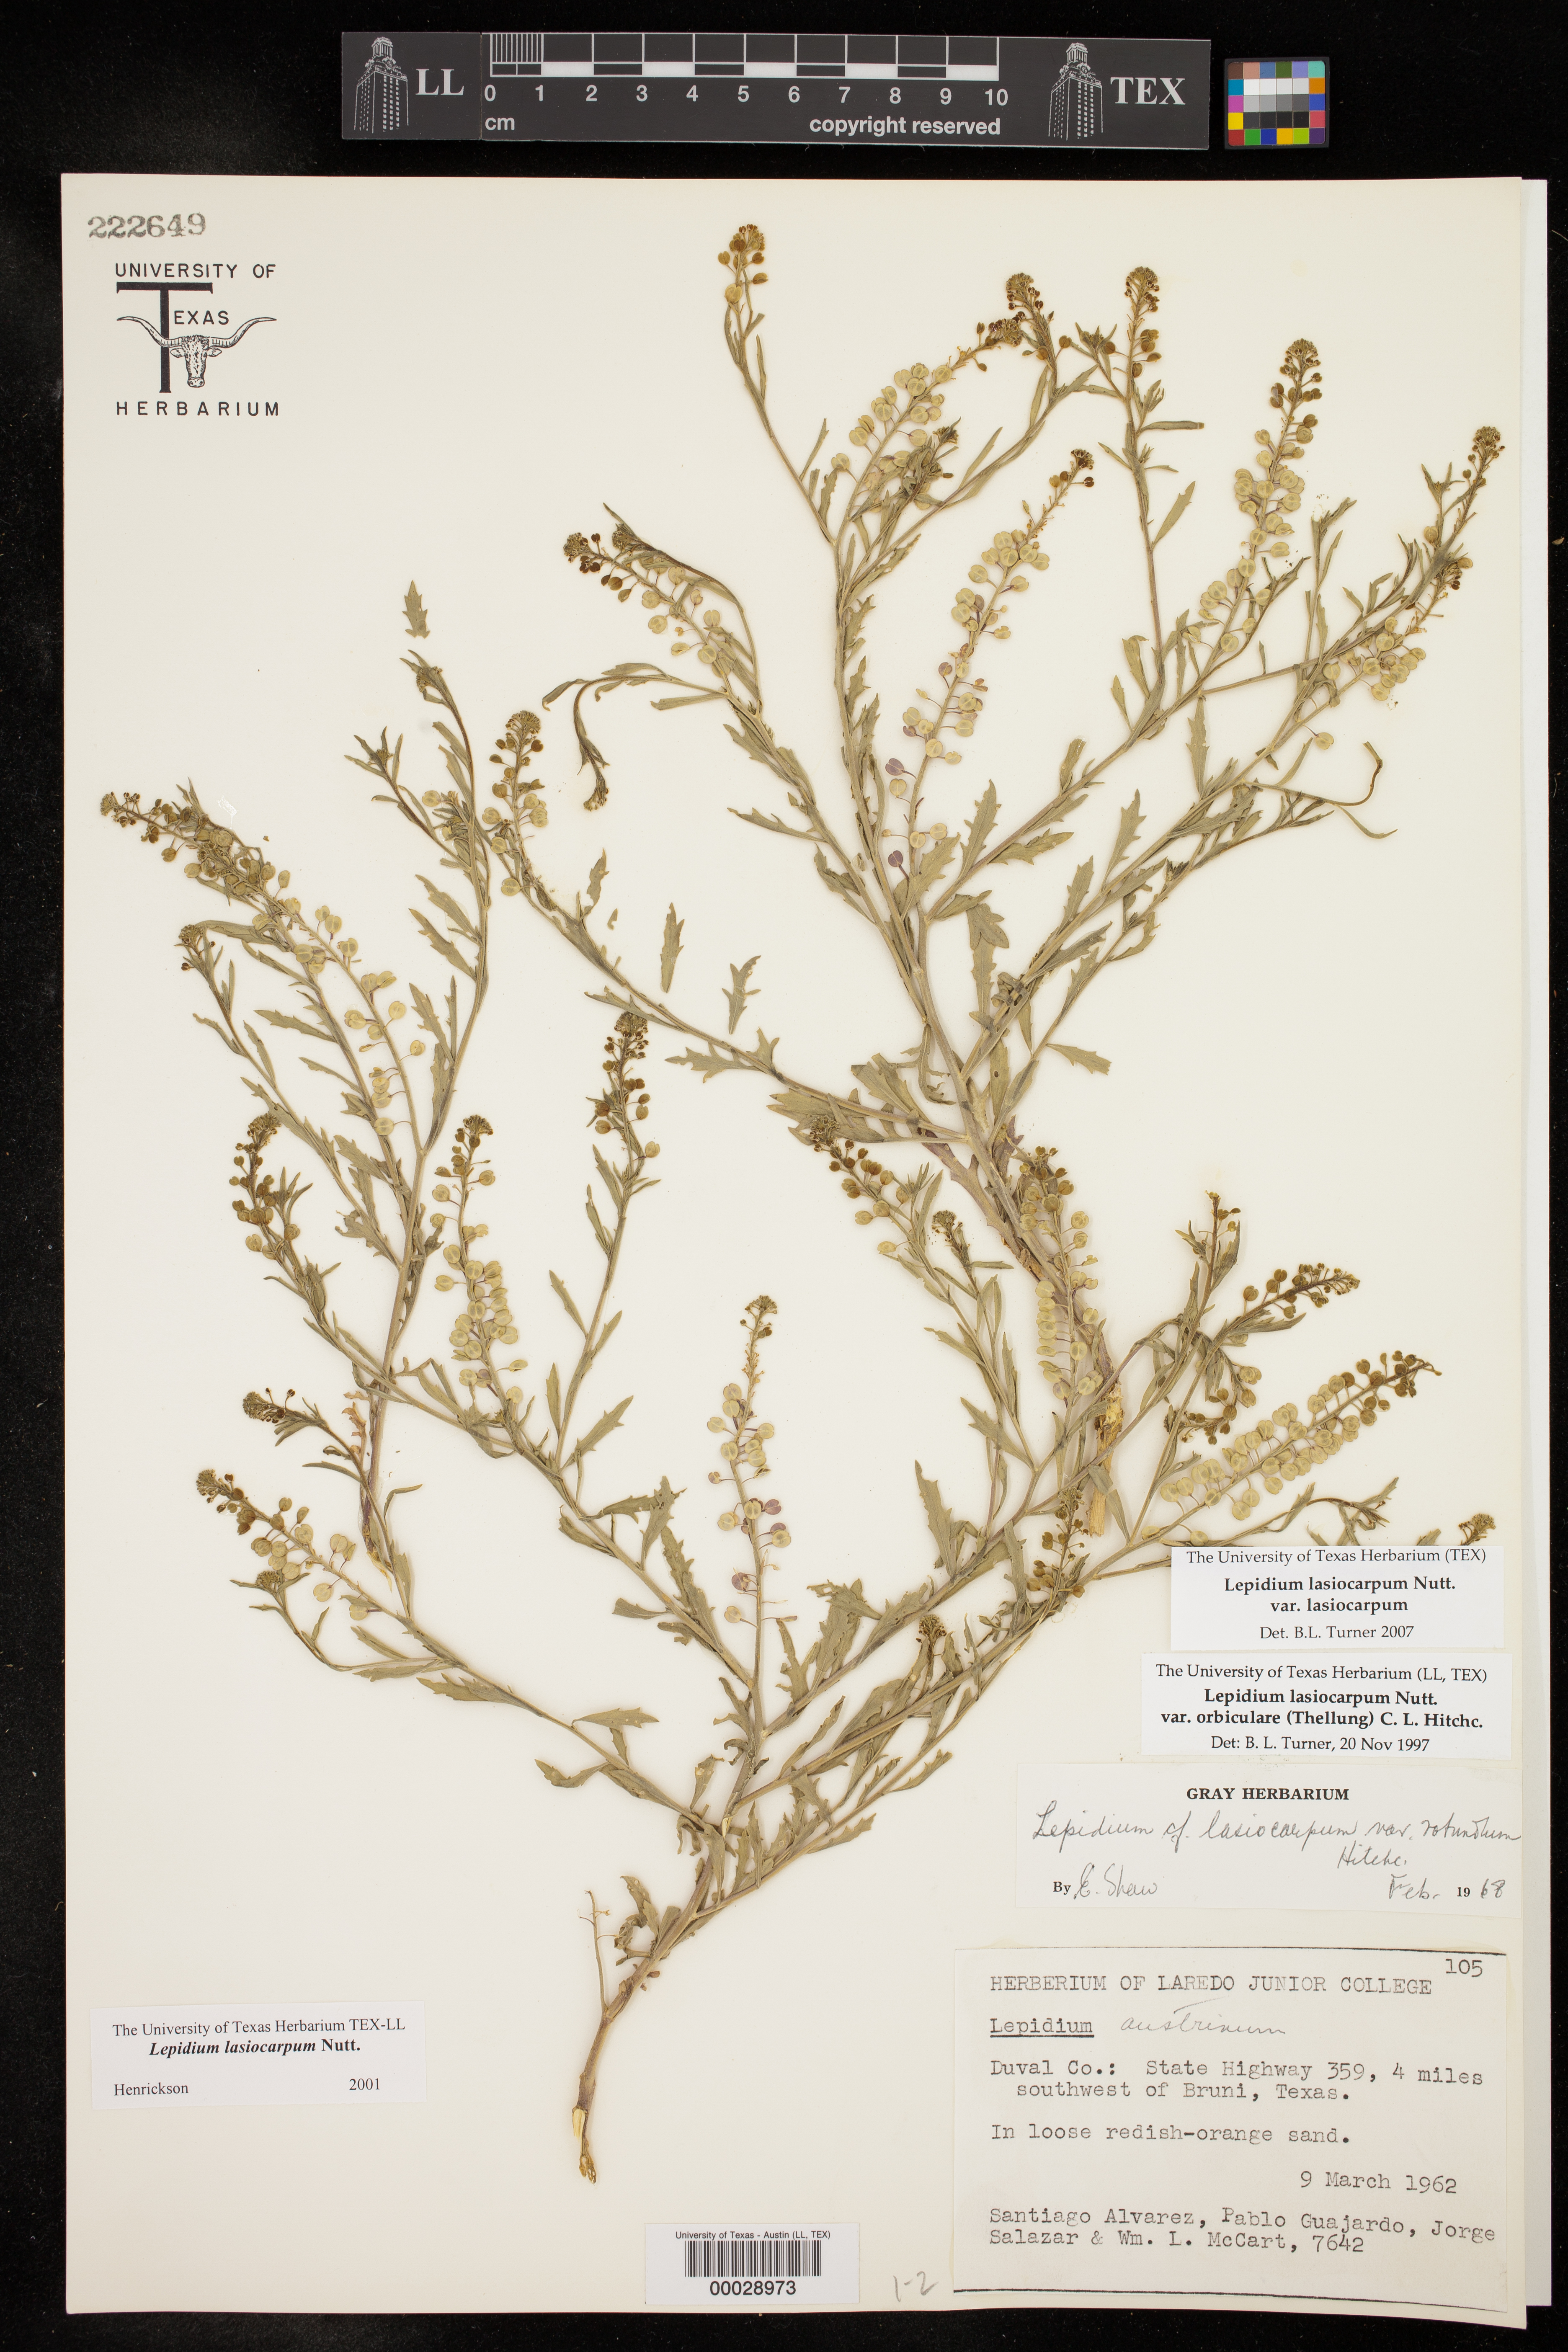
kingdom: Plantae
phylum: Tracheophyta
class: Magnoliopsida
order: Brassicales
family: Brassicaceae
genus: Lepidium
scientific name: Lepidium lasiocarpum
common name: Hairy-pod pepperwort
